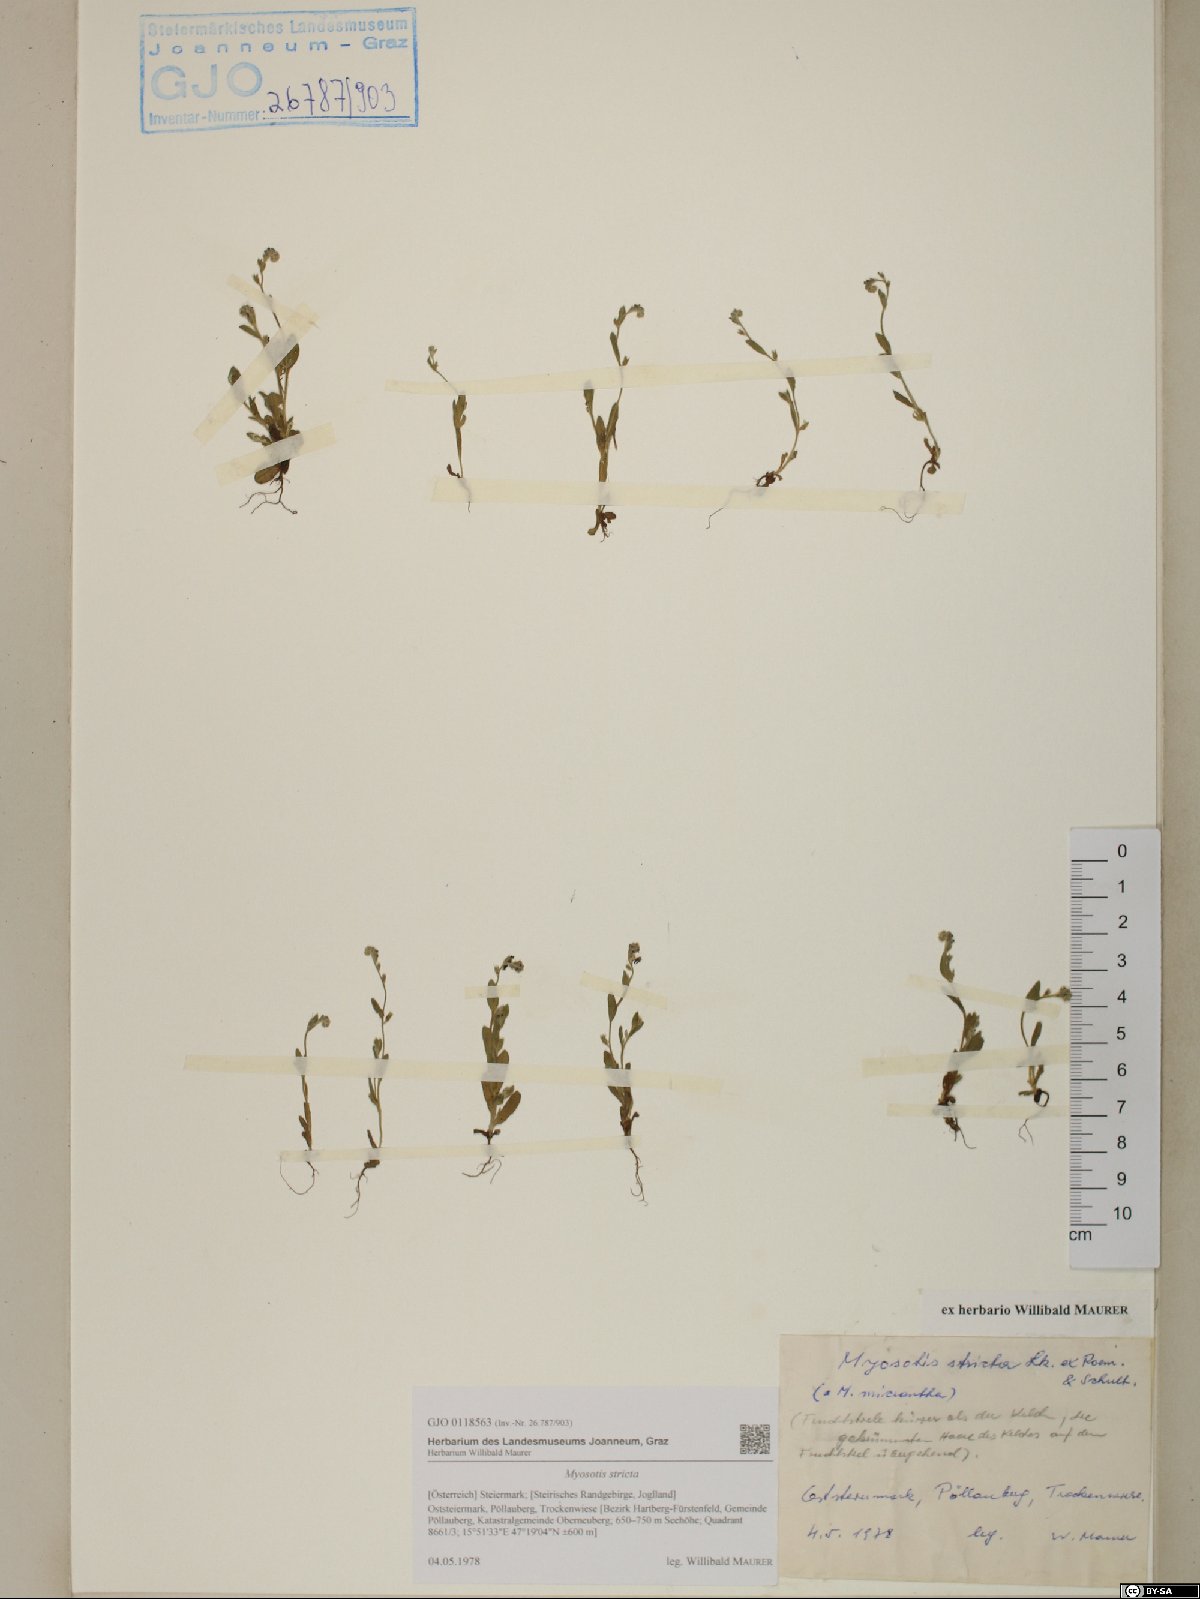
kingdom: Plantae
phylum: Tracheophyta
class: Magnoliopsida
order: Boraginales
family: Boraginaceae
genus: Myosotis
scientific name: Myosotis stricta
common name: Strict forget-me-not
